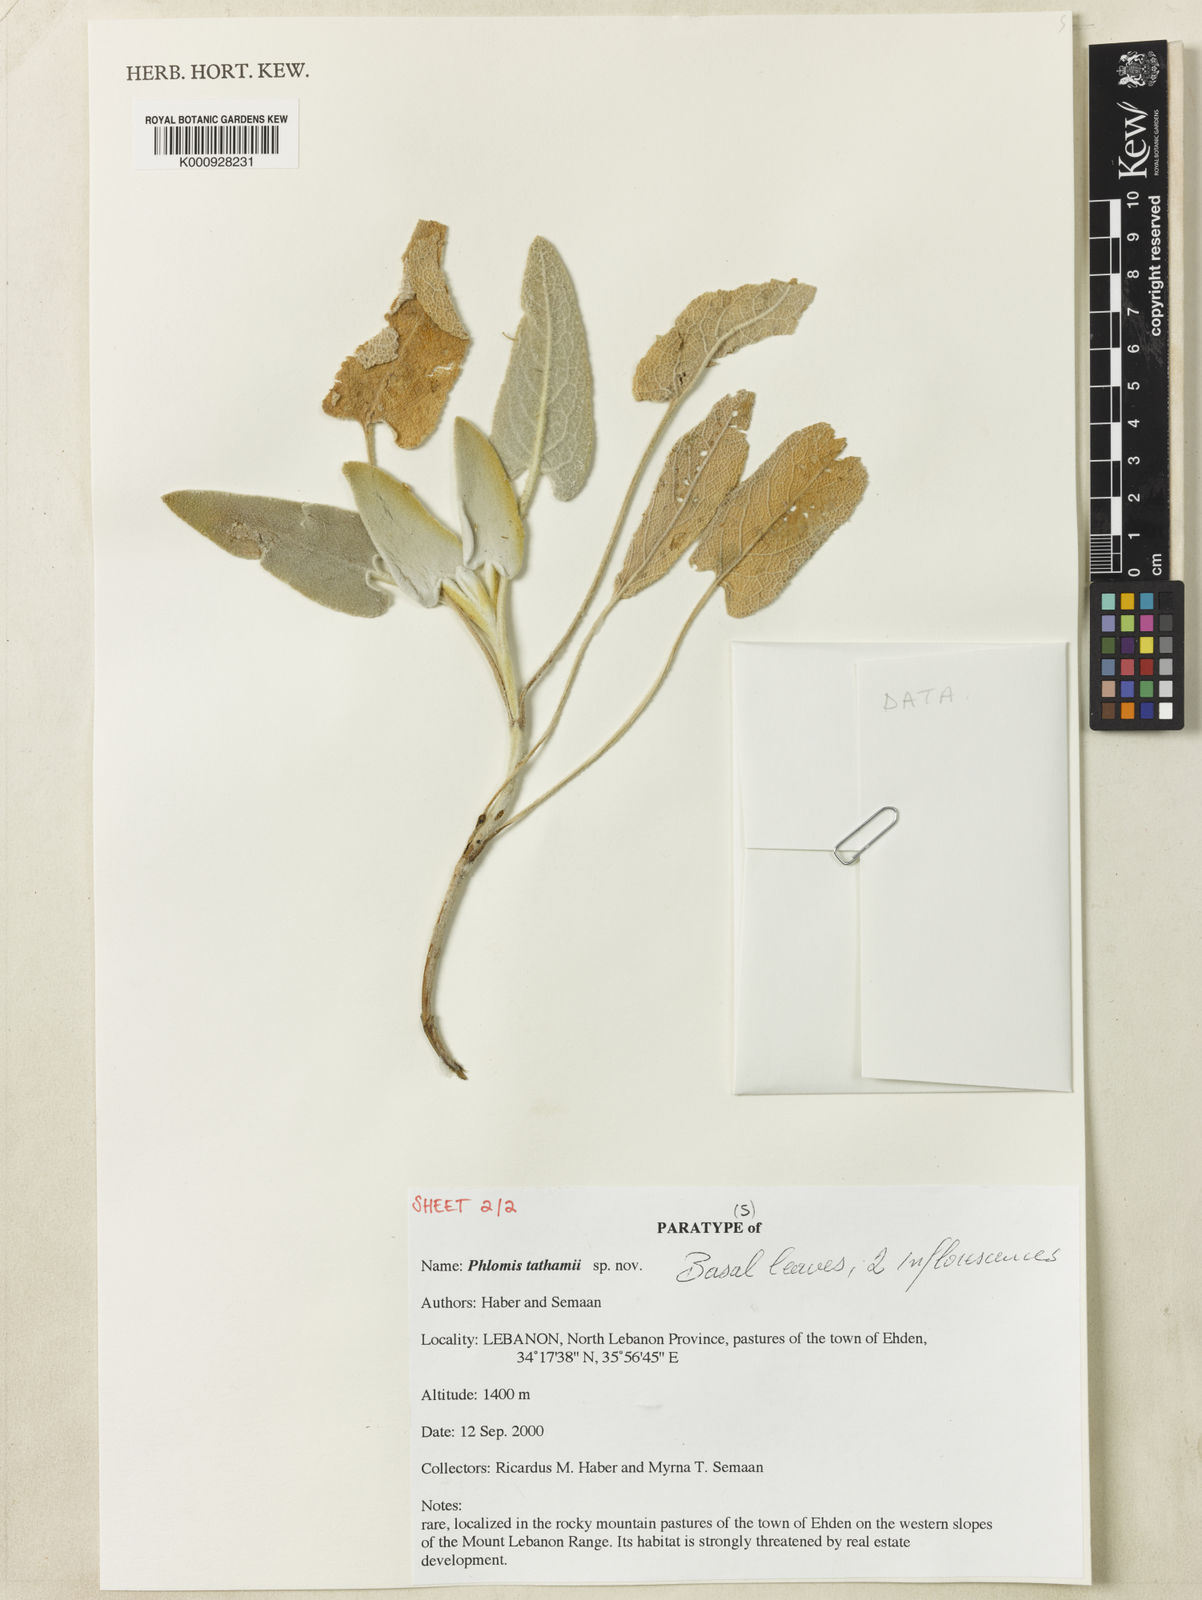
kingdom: Plantae
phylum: Tracheophyta
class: Magnoliopsida
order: Lamiales
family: Lamiaceae
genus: Phlomis
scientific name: Phlomis
